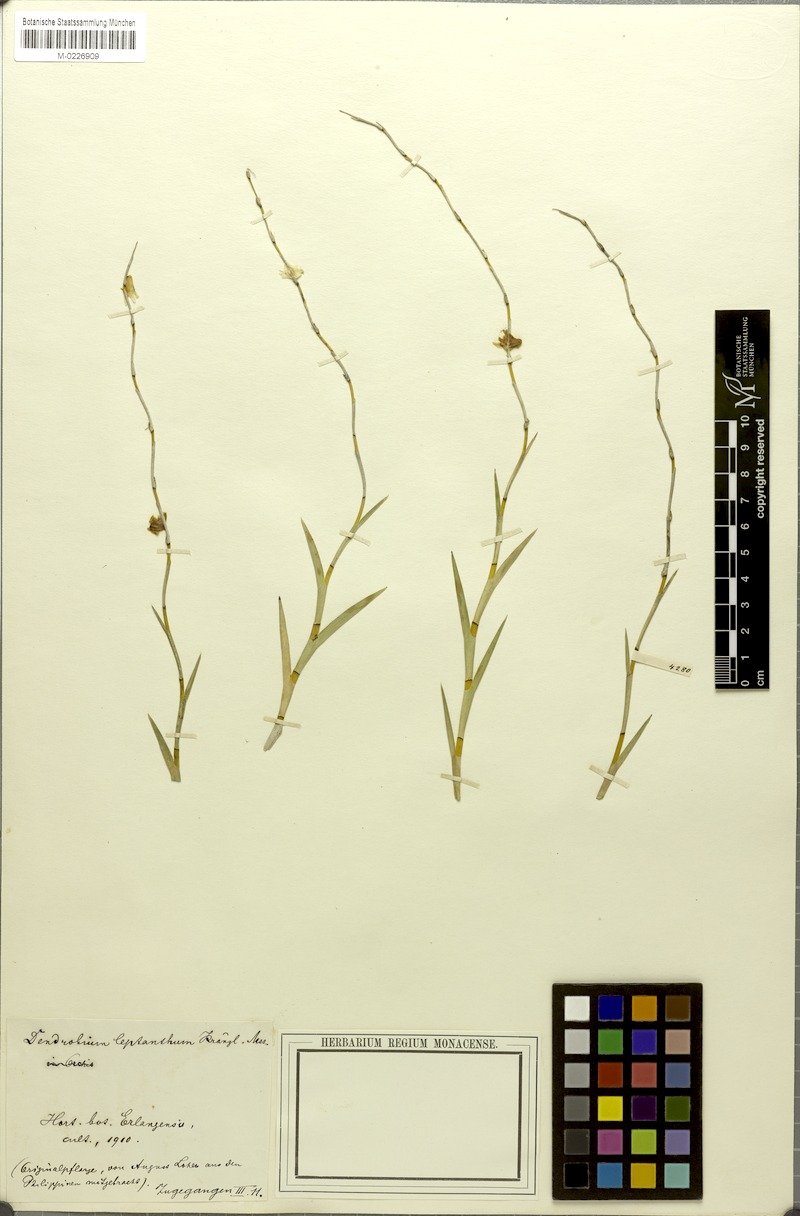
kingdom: Plantae
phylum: Tracheophyta
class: Liliopsida
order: Asparagales
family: Orchidaceae
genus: Dendrobium
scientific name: Dendrobium
